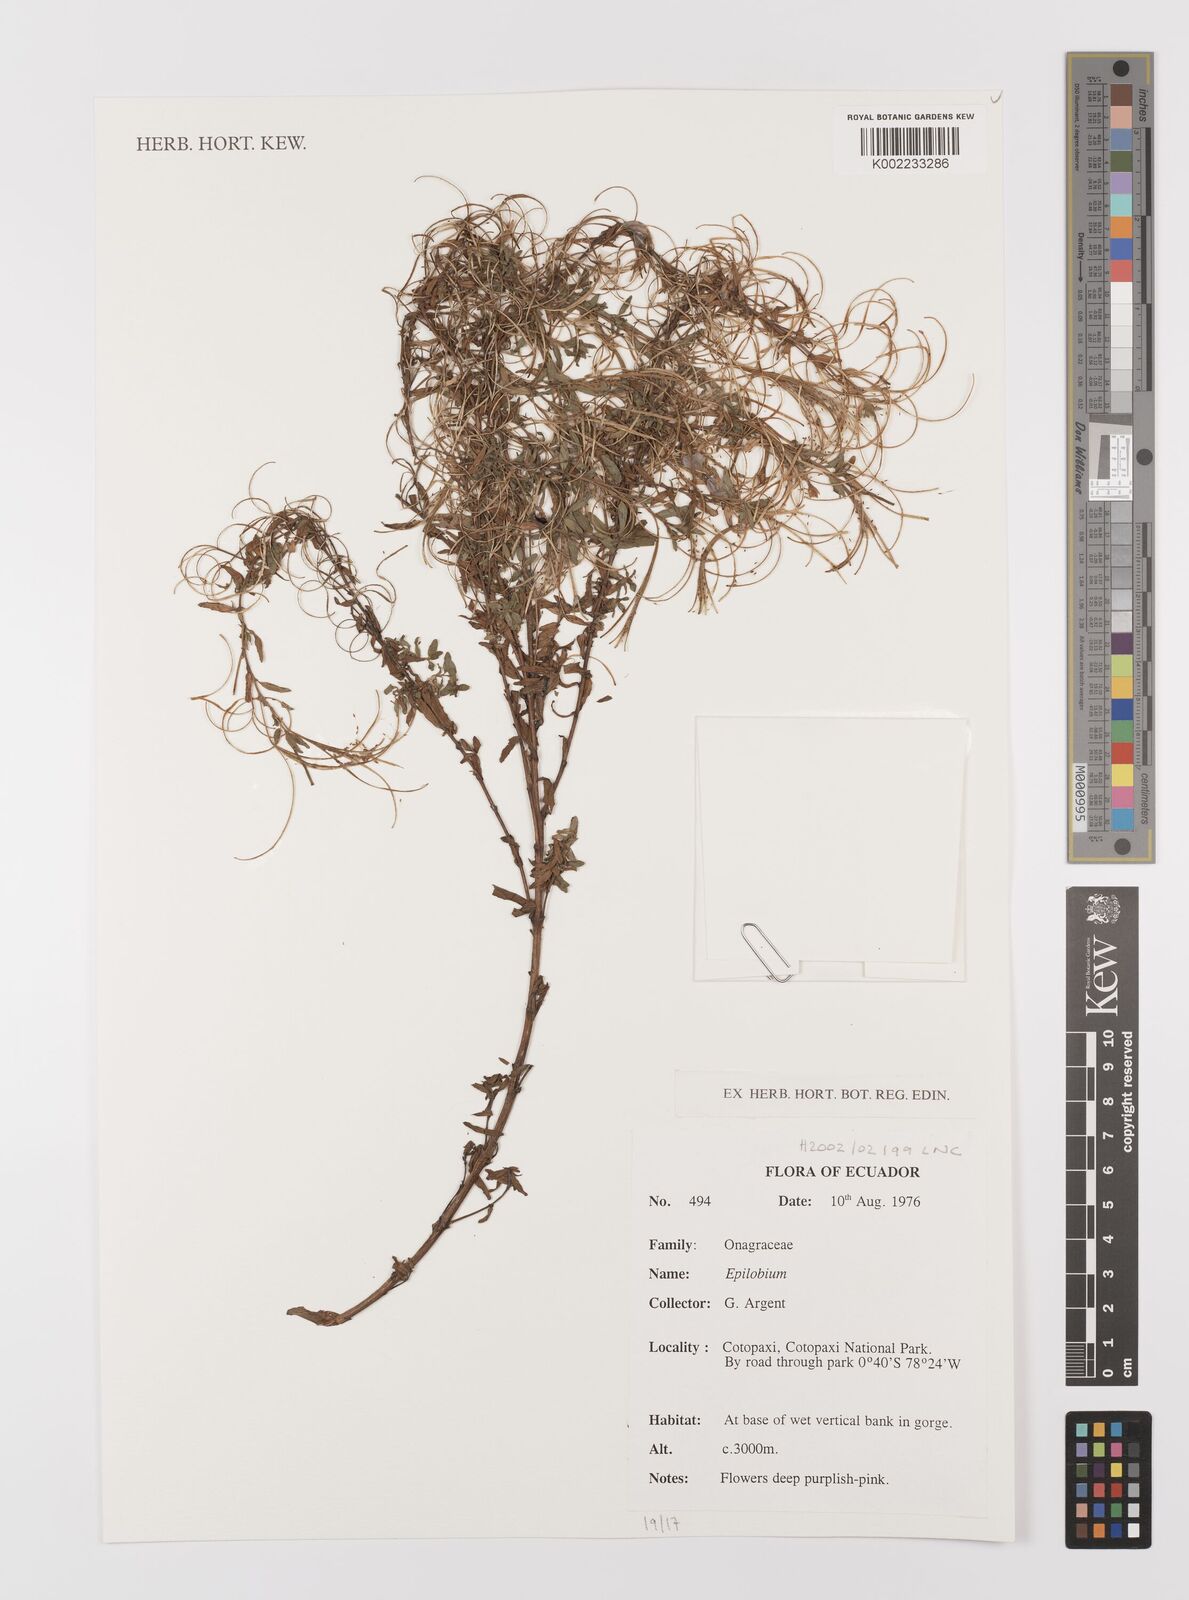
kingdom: Plantae
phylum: Tracheophyta
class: Magnoliopsida
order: Myrtales
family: Onagraceae
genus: Epilobium
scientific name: Epilobium
